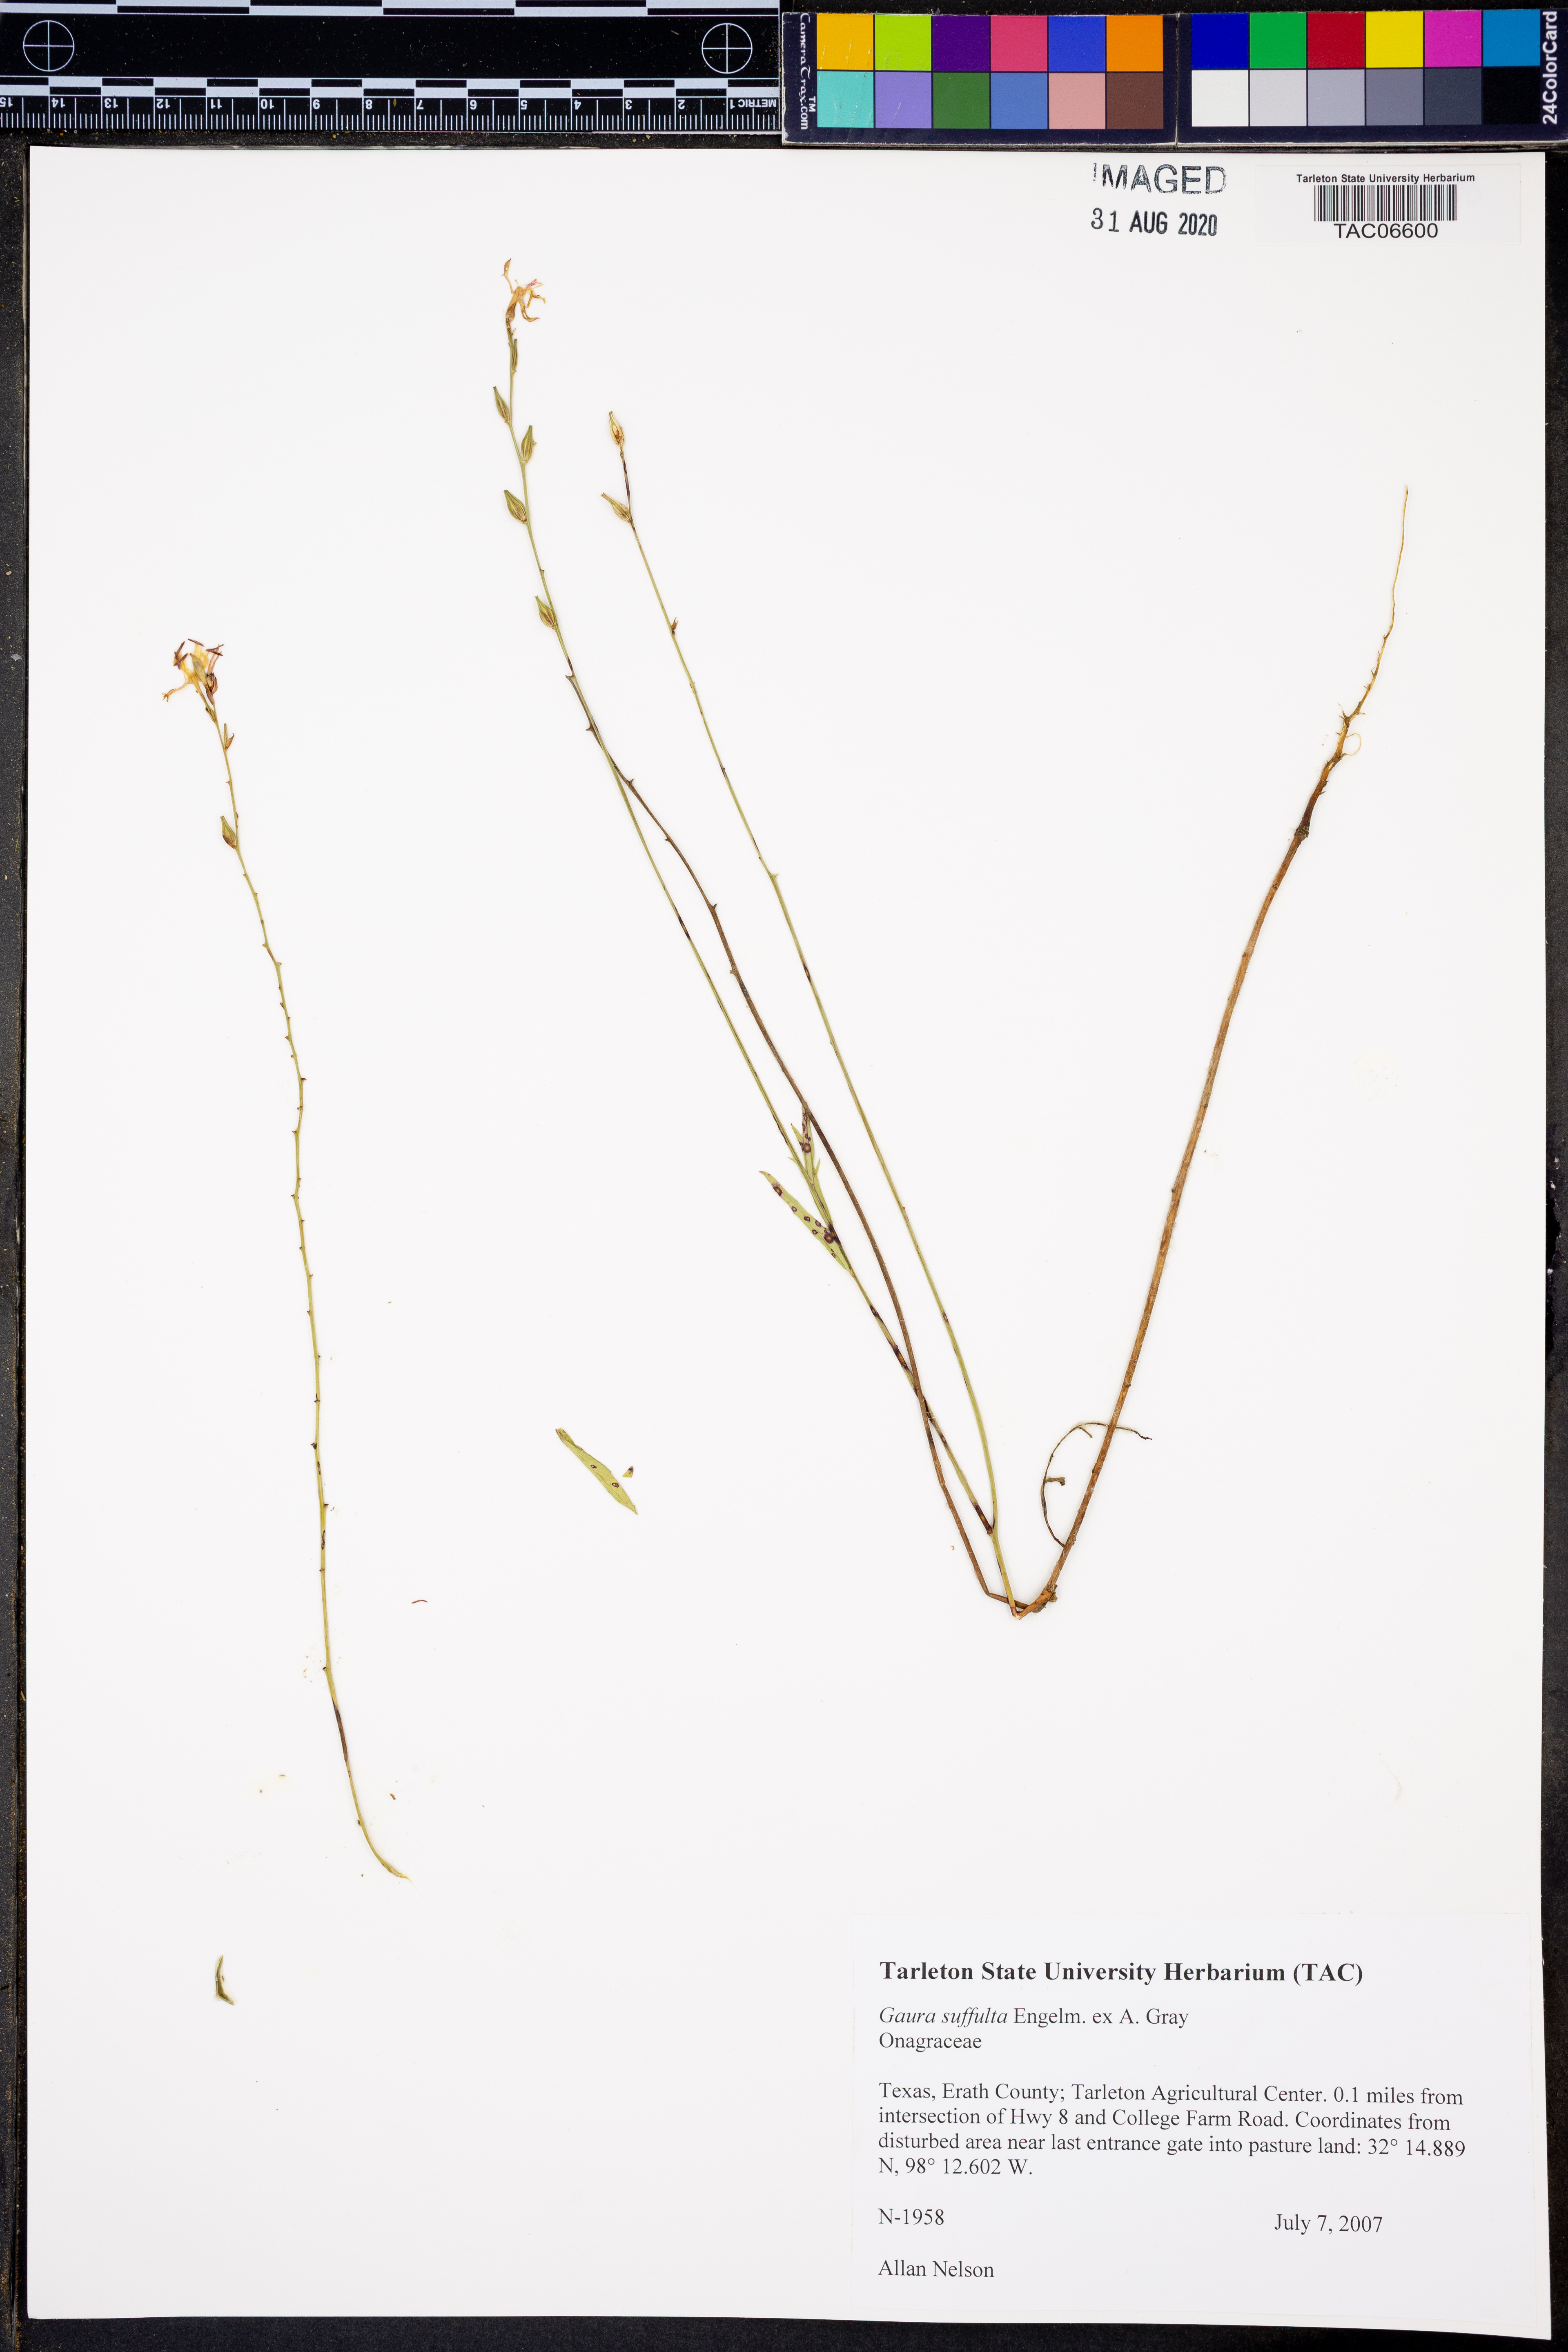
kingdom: Plantae
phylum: Tracheophyta
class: Magnoliopsida
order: Myrtales
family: Onagraceae
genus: Oenothera
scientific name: Oenothera Gaura suffulta
